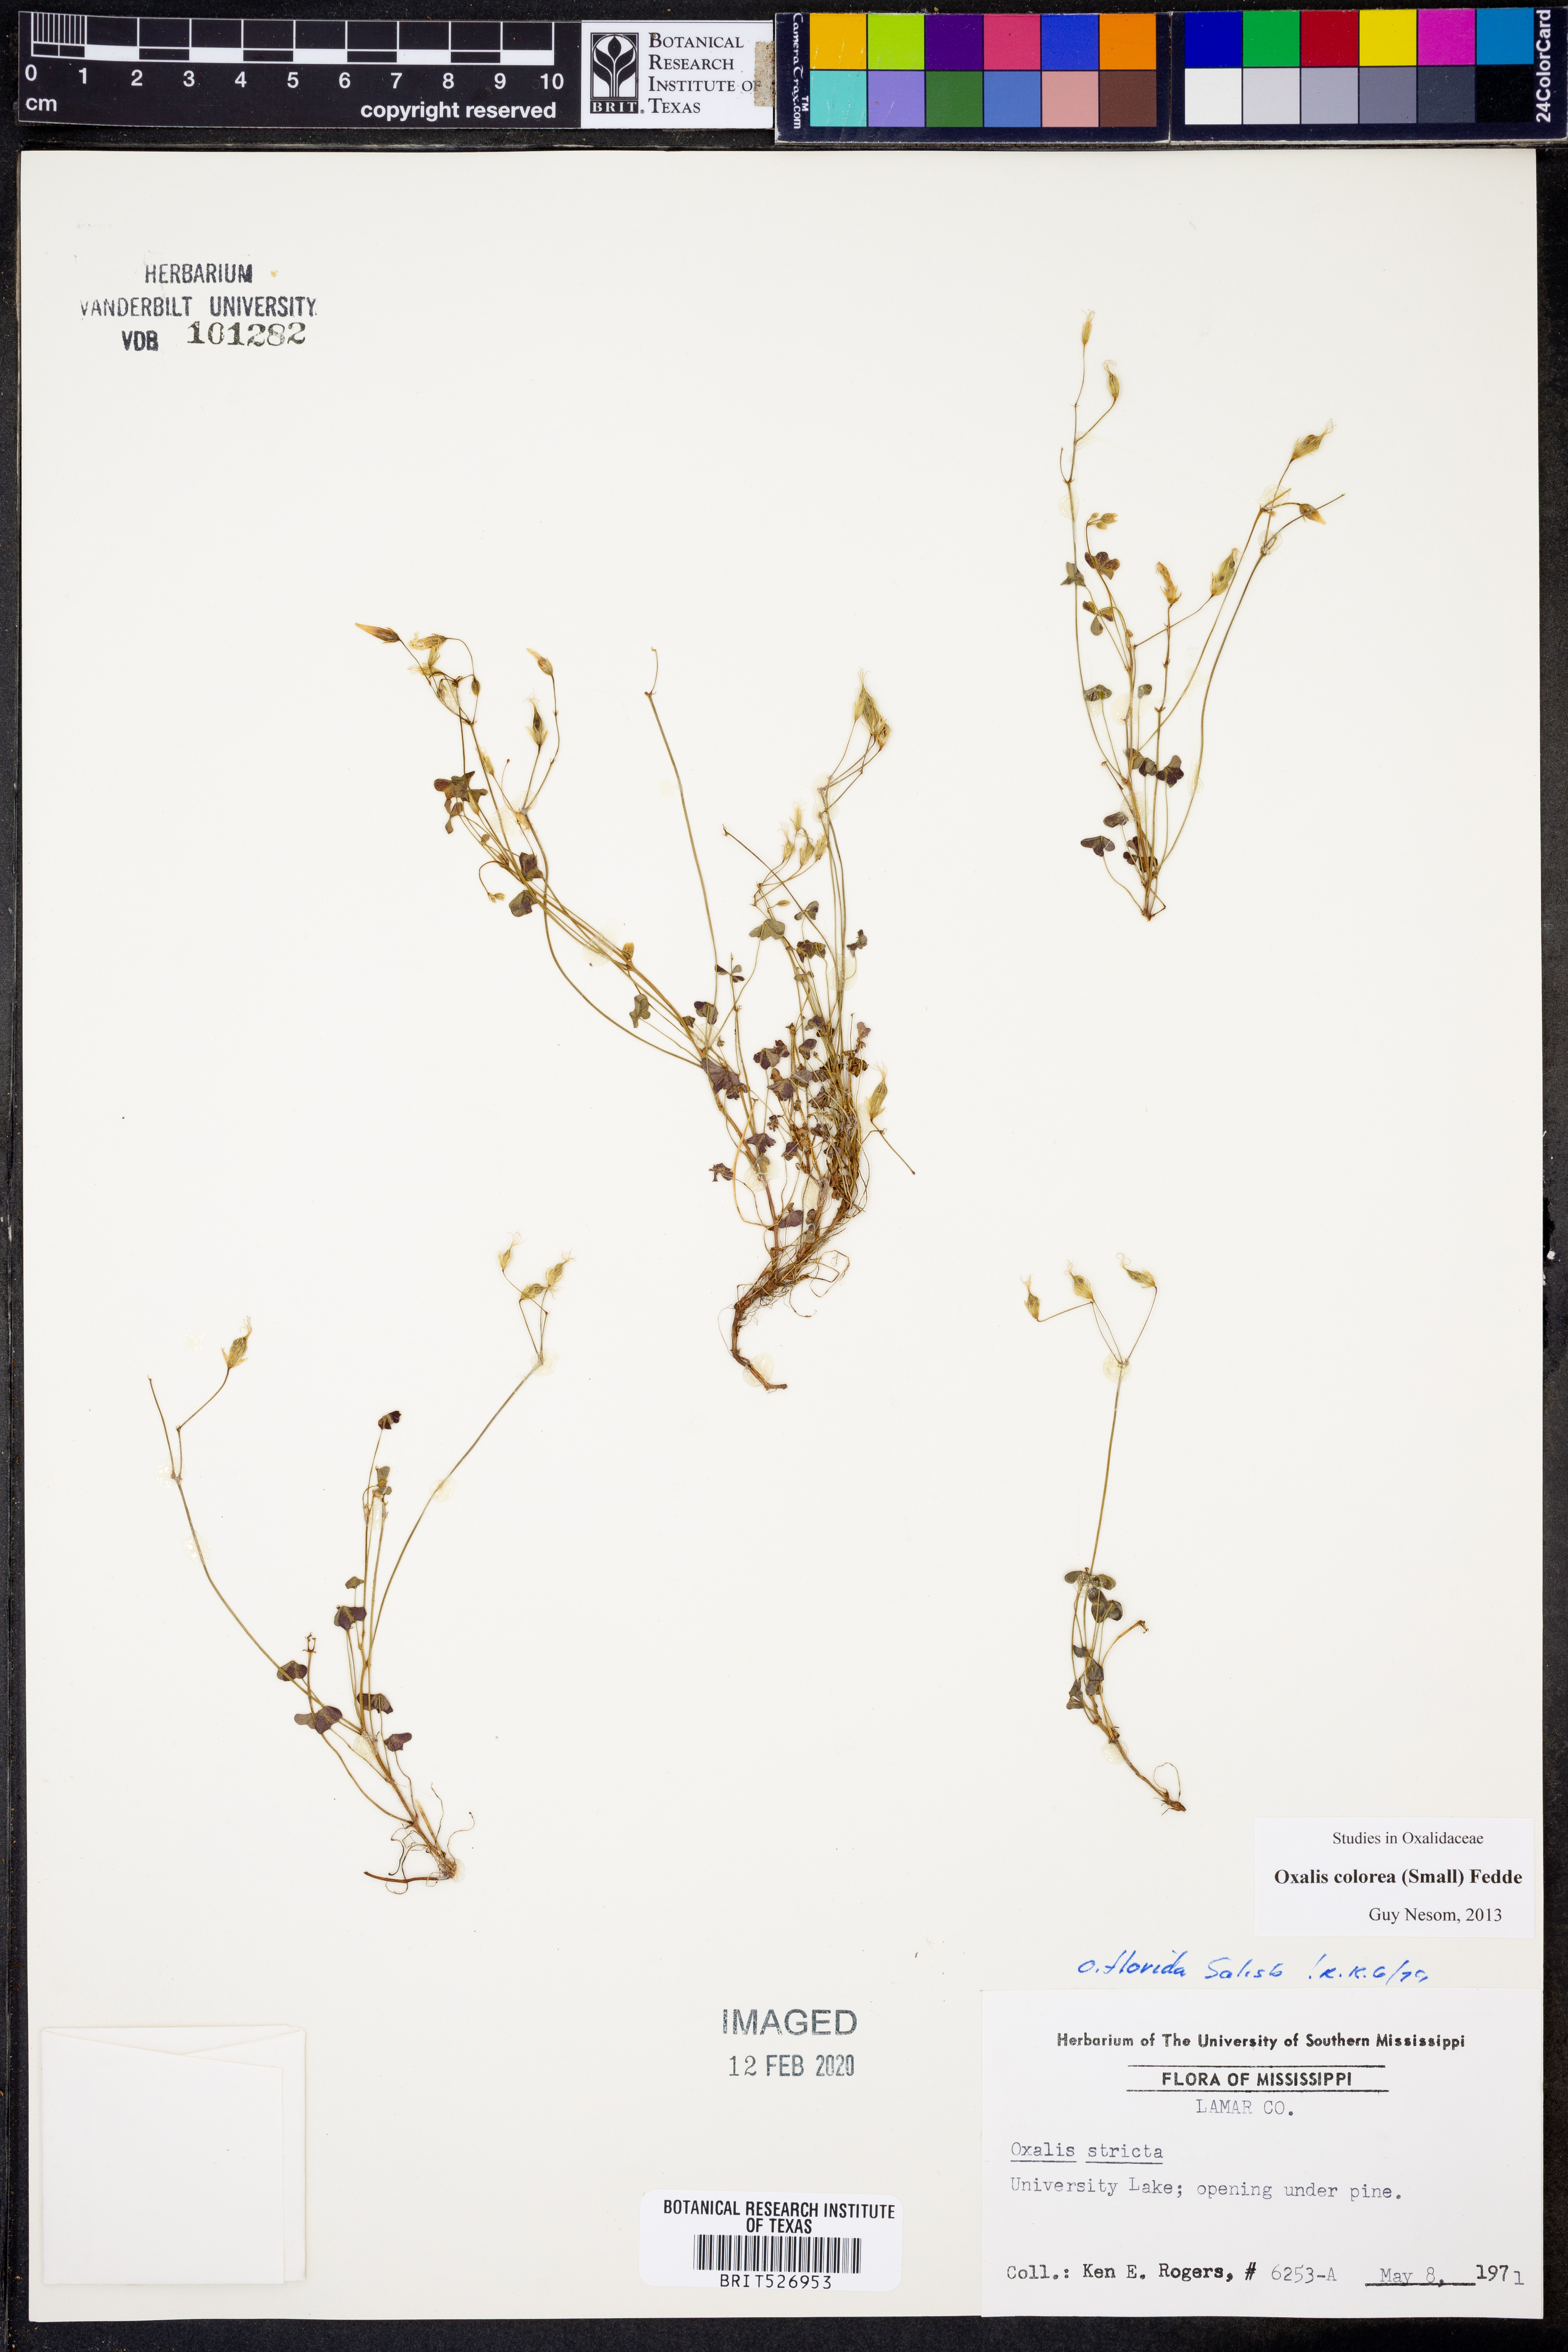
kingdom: Plantae
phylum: Tracheophyta
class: Magnoliopsida
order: Oxalidales
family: Oxalidaceae
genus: Oxalis
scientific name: Oxalis colorea
